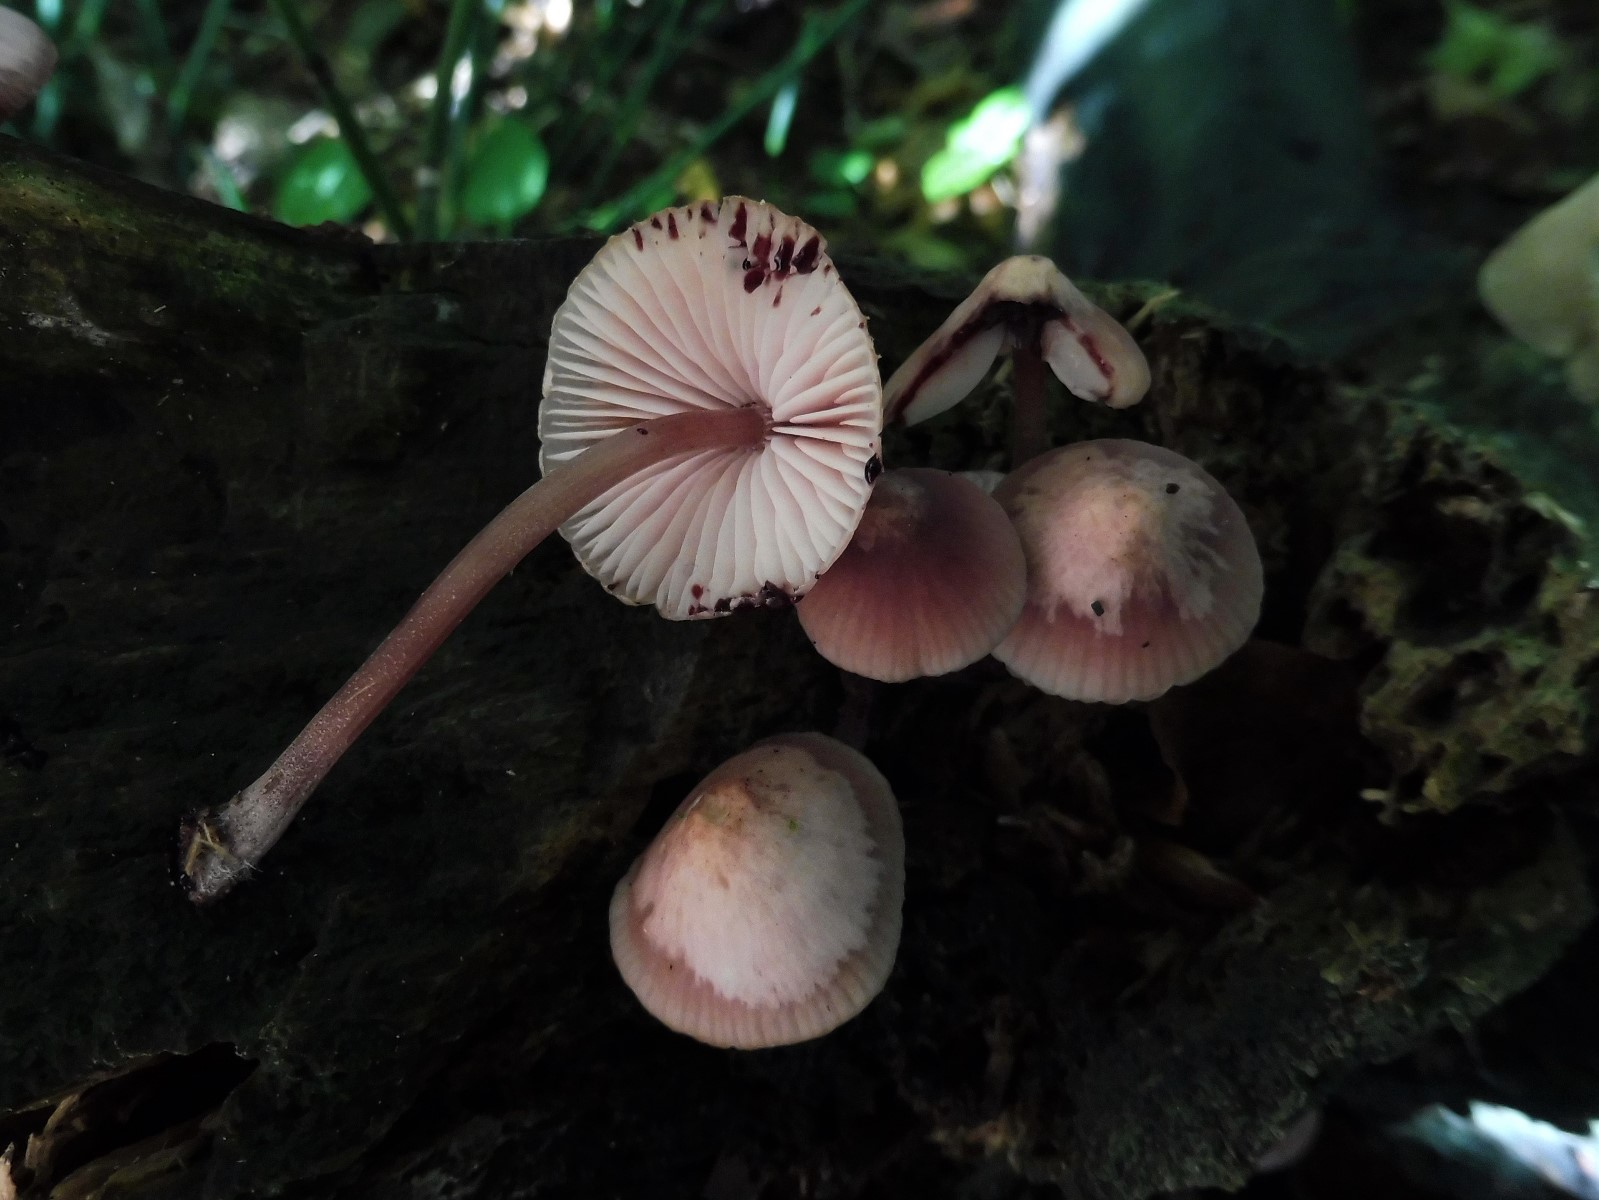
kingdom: Fungi
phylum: Basidiomycota
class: Agaricomycetes
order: Agaricales
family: Mycenaceae
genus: Mycena
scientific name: Mycena haematopus
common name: blødende huesvamp
